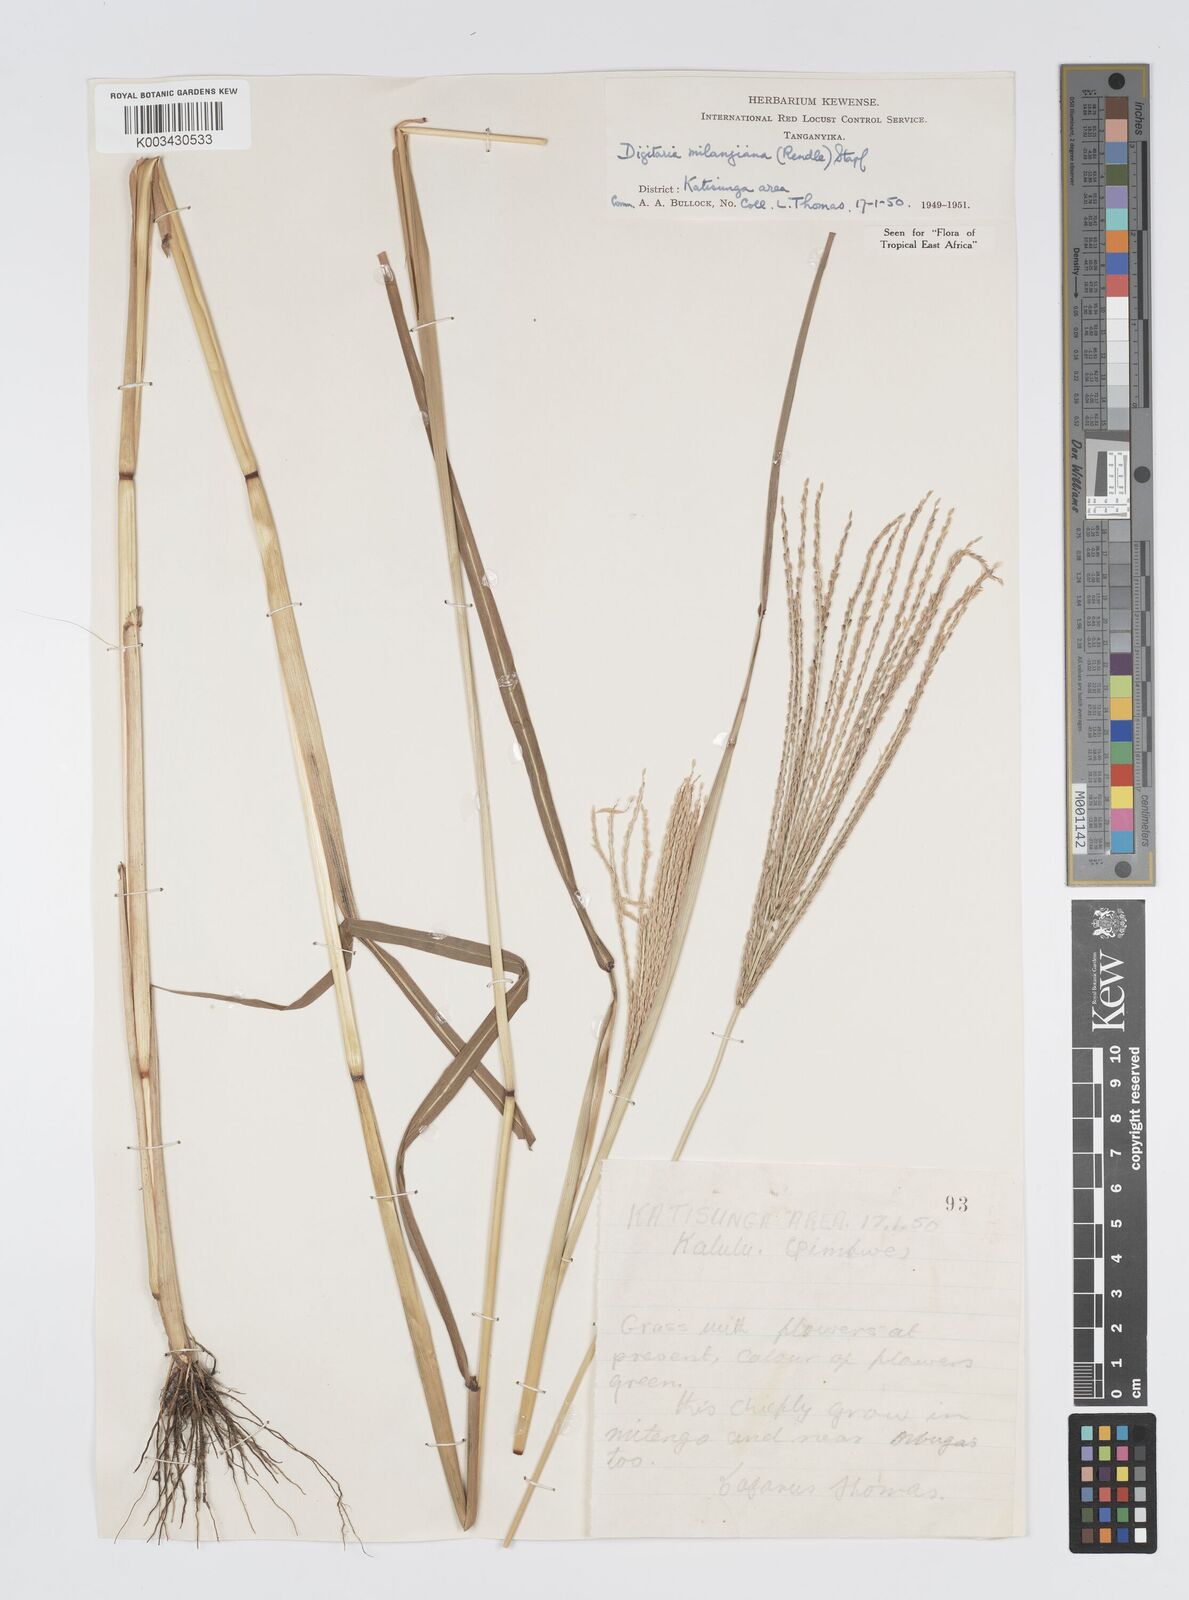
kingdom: Plantae
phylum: Tracheophyta
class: Liliopsida
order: Poales
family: Poaceae
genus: Digitaria
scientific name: Digitaria milanjiana
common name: Madagascar crabgrass
